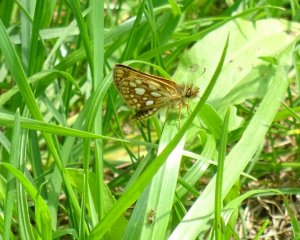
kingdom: Animalia
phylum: Arthropoda
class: Insecta
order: Lepidoptera
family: Hesperiidae
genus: Carterocephalus
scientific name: Carterocephalus palaemon
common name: Chequered Skipper
